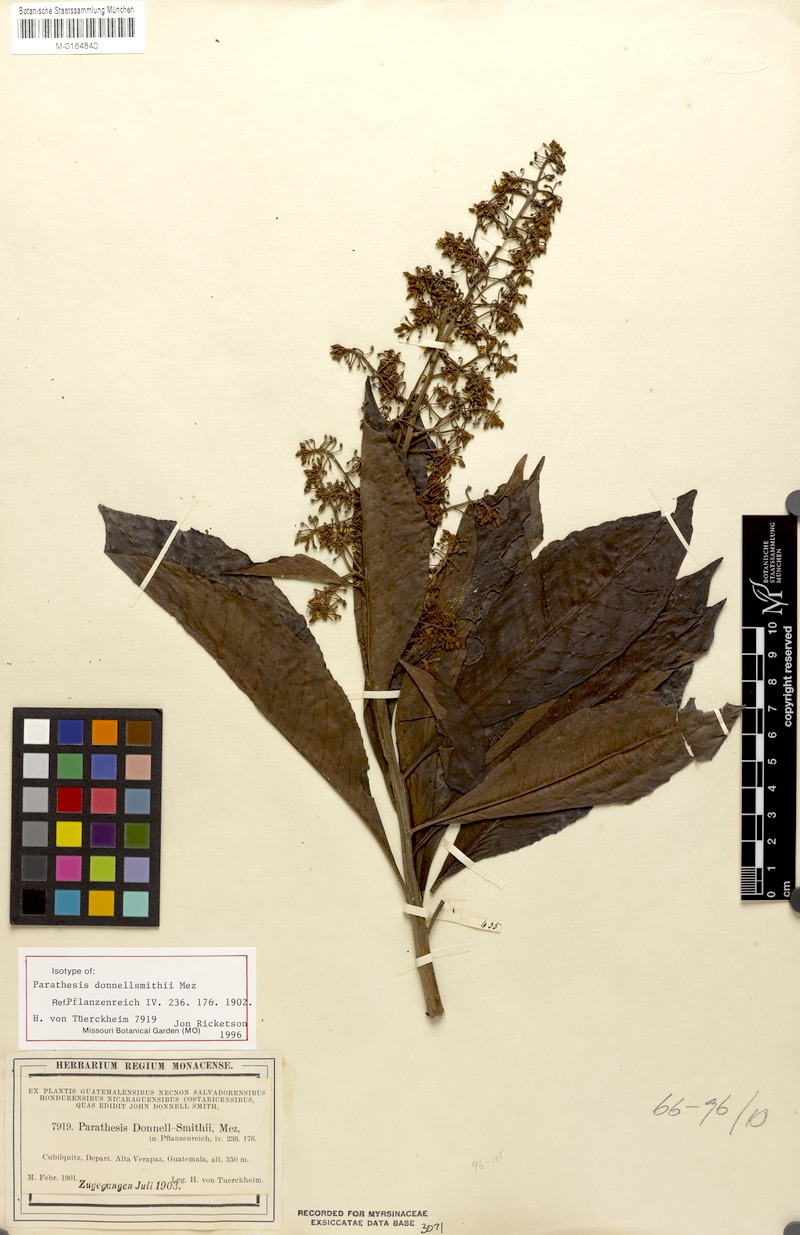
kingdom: Plantae
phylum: Tracheophyta
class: Magnoliopsida
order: Ericales
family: Primulaceae
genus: Parathesis
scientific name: Parathesis donnell-smithii
